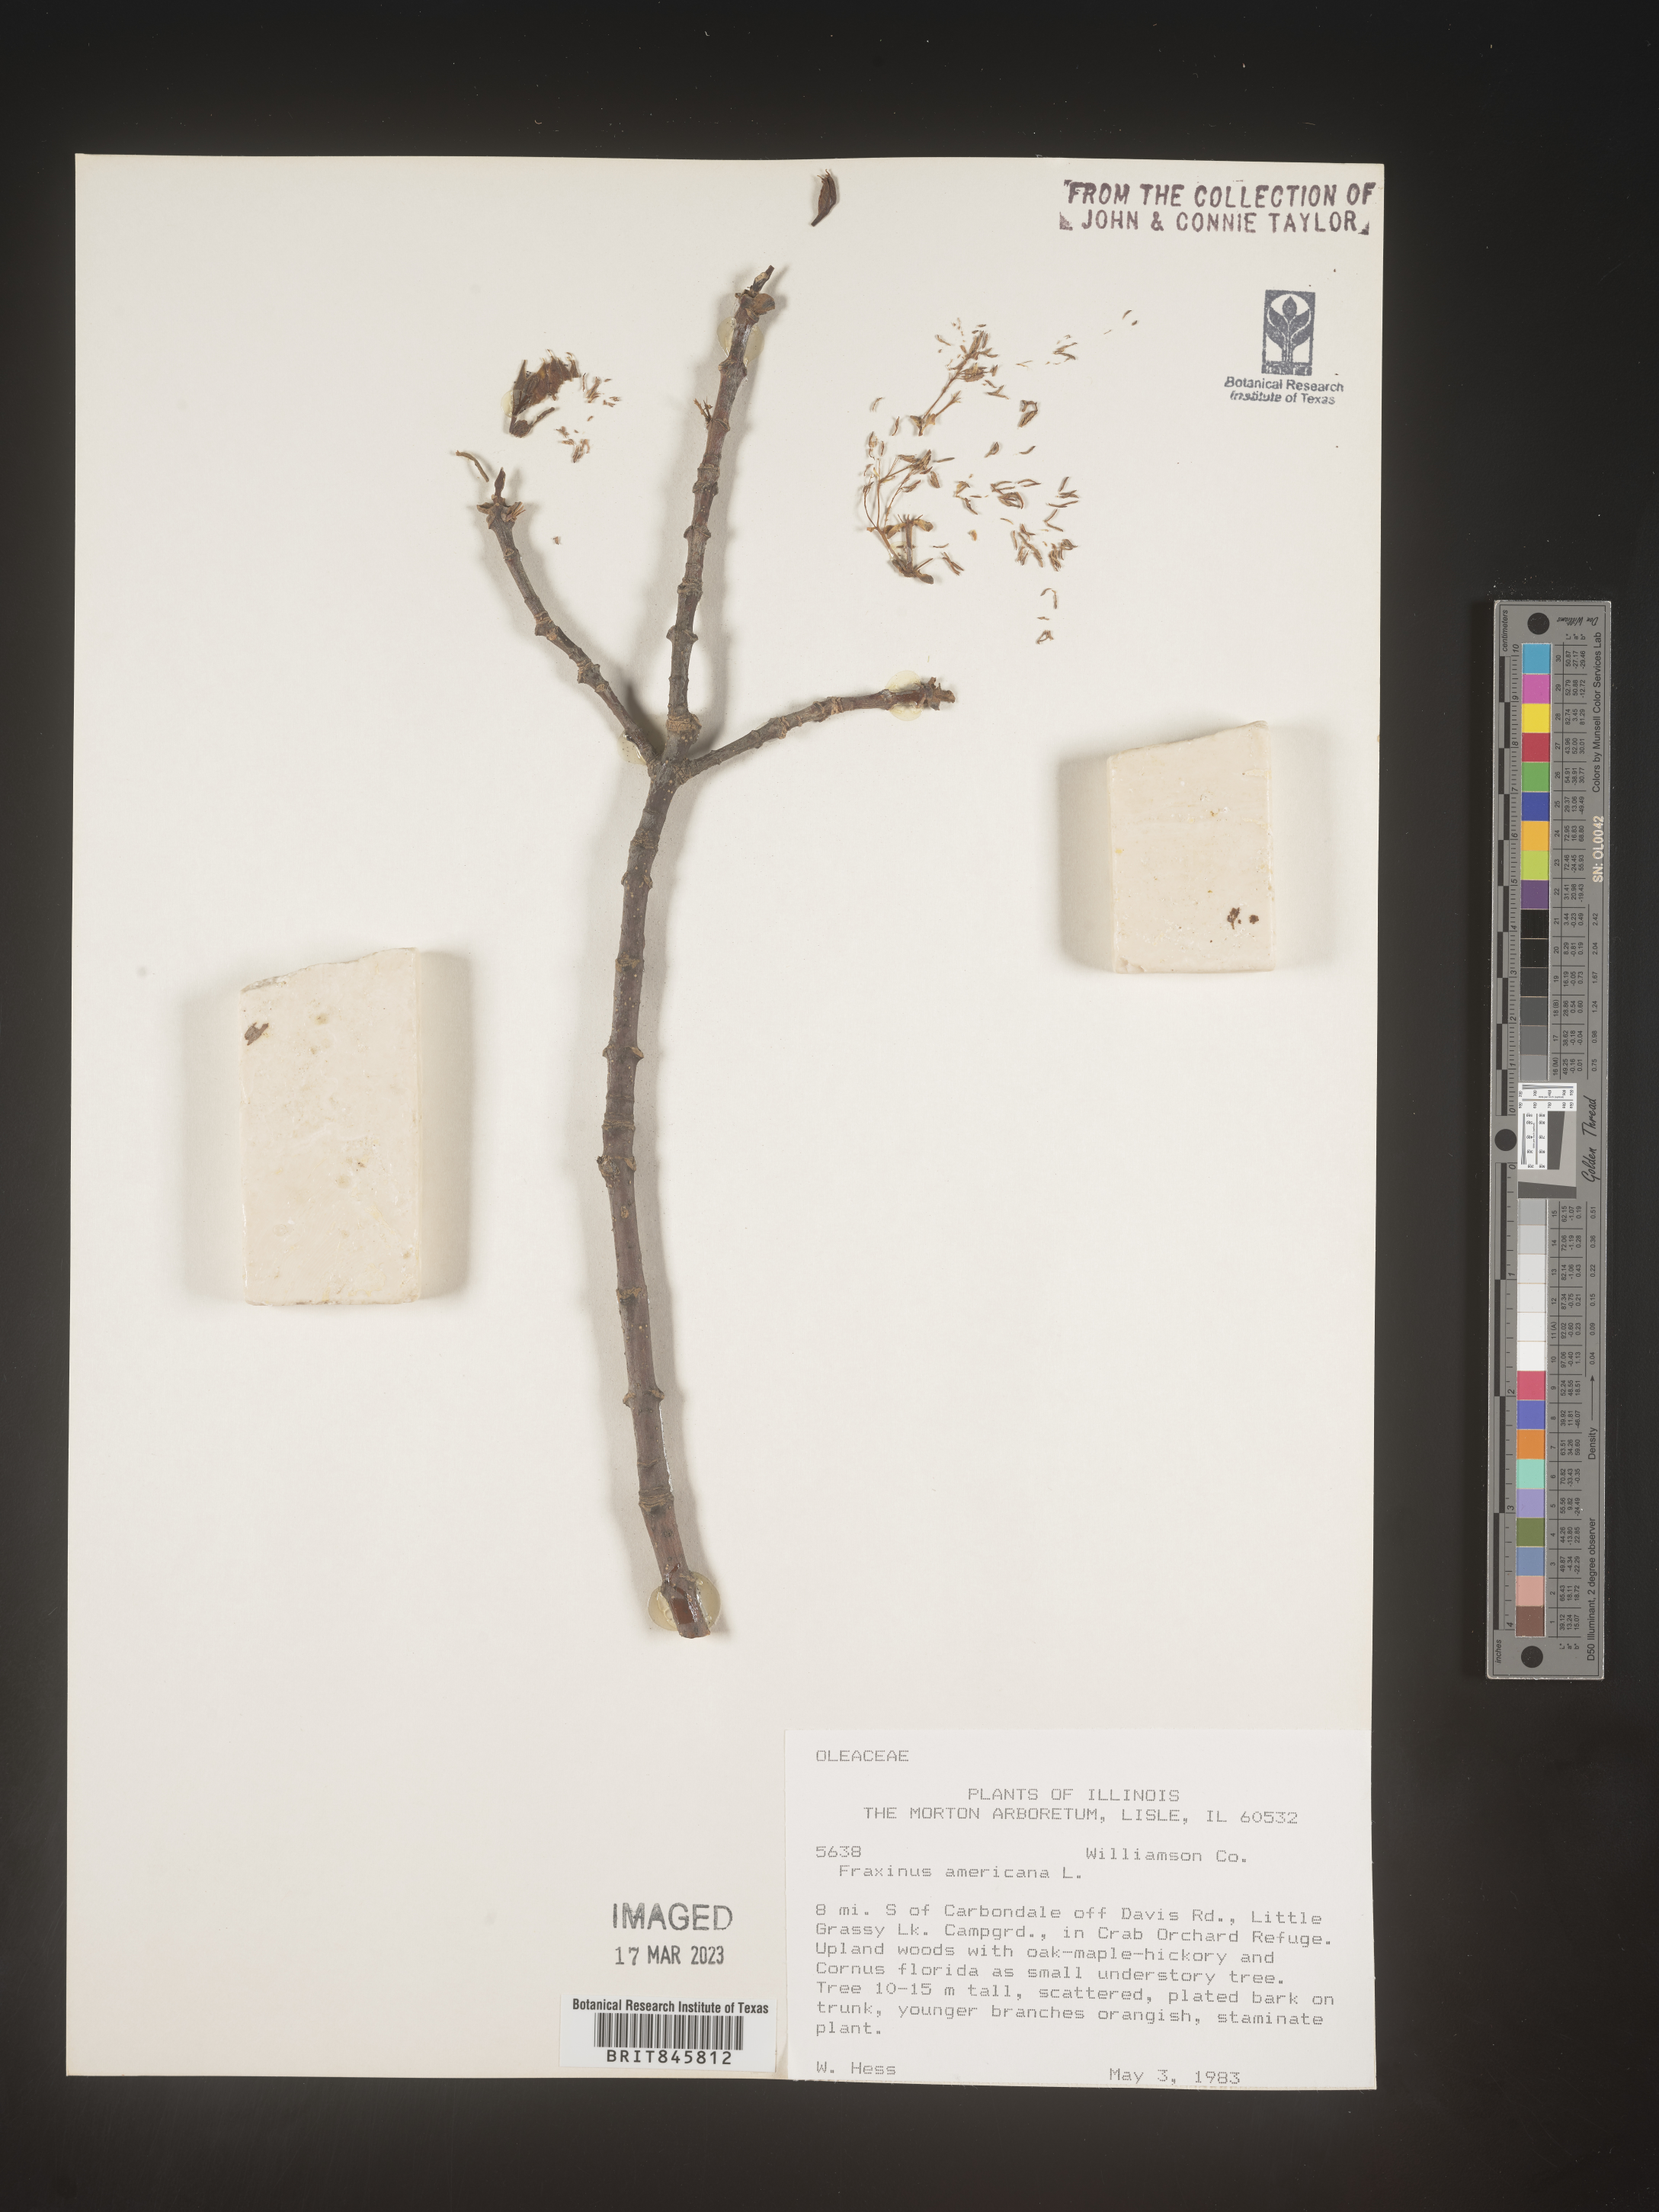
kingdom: Plantae
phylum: Tracheophyta
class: Magnoliopsida
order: Lamiales
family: Oleaceae
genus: Fraxinus
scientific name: Fraxinus americana
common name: White ash
